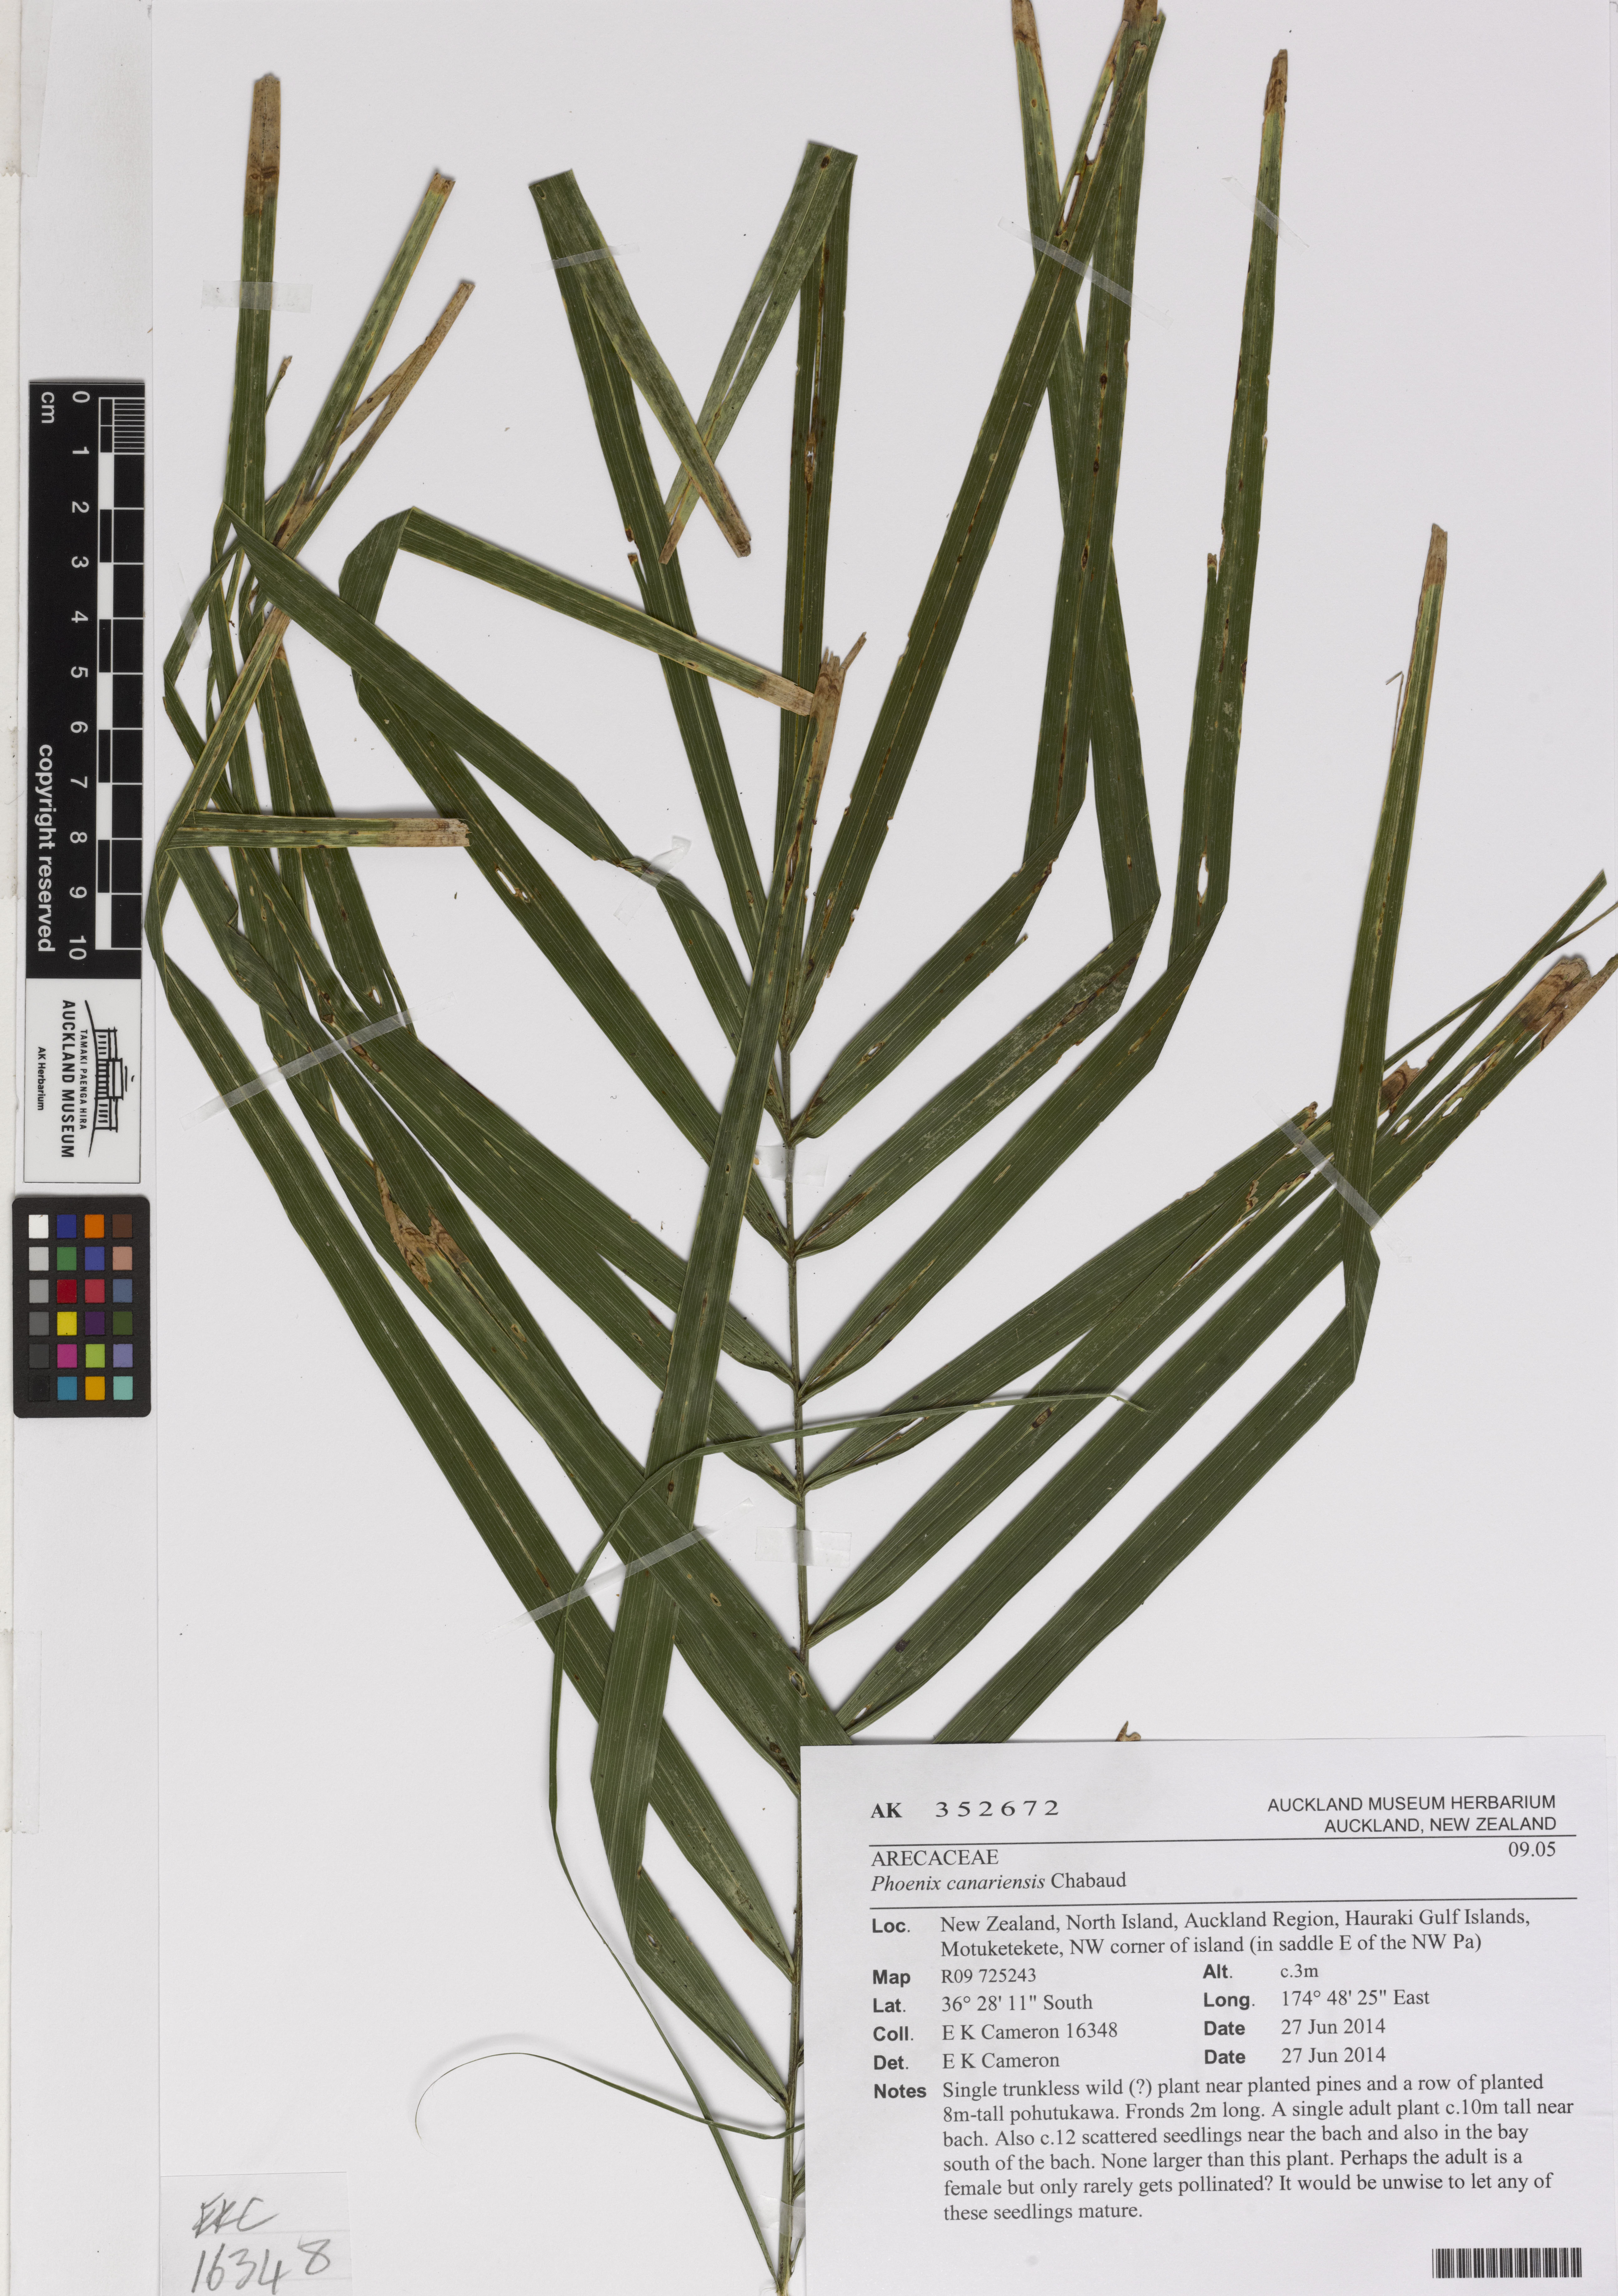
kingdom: Plantae
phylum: Tracheophyta
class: Liliopsida
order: Arecales
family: Arecaceae
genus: Phoenix
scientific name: Phoenix canariensis
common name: Canary island date palm
